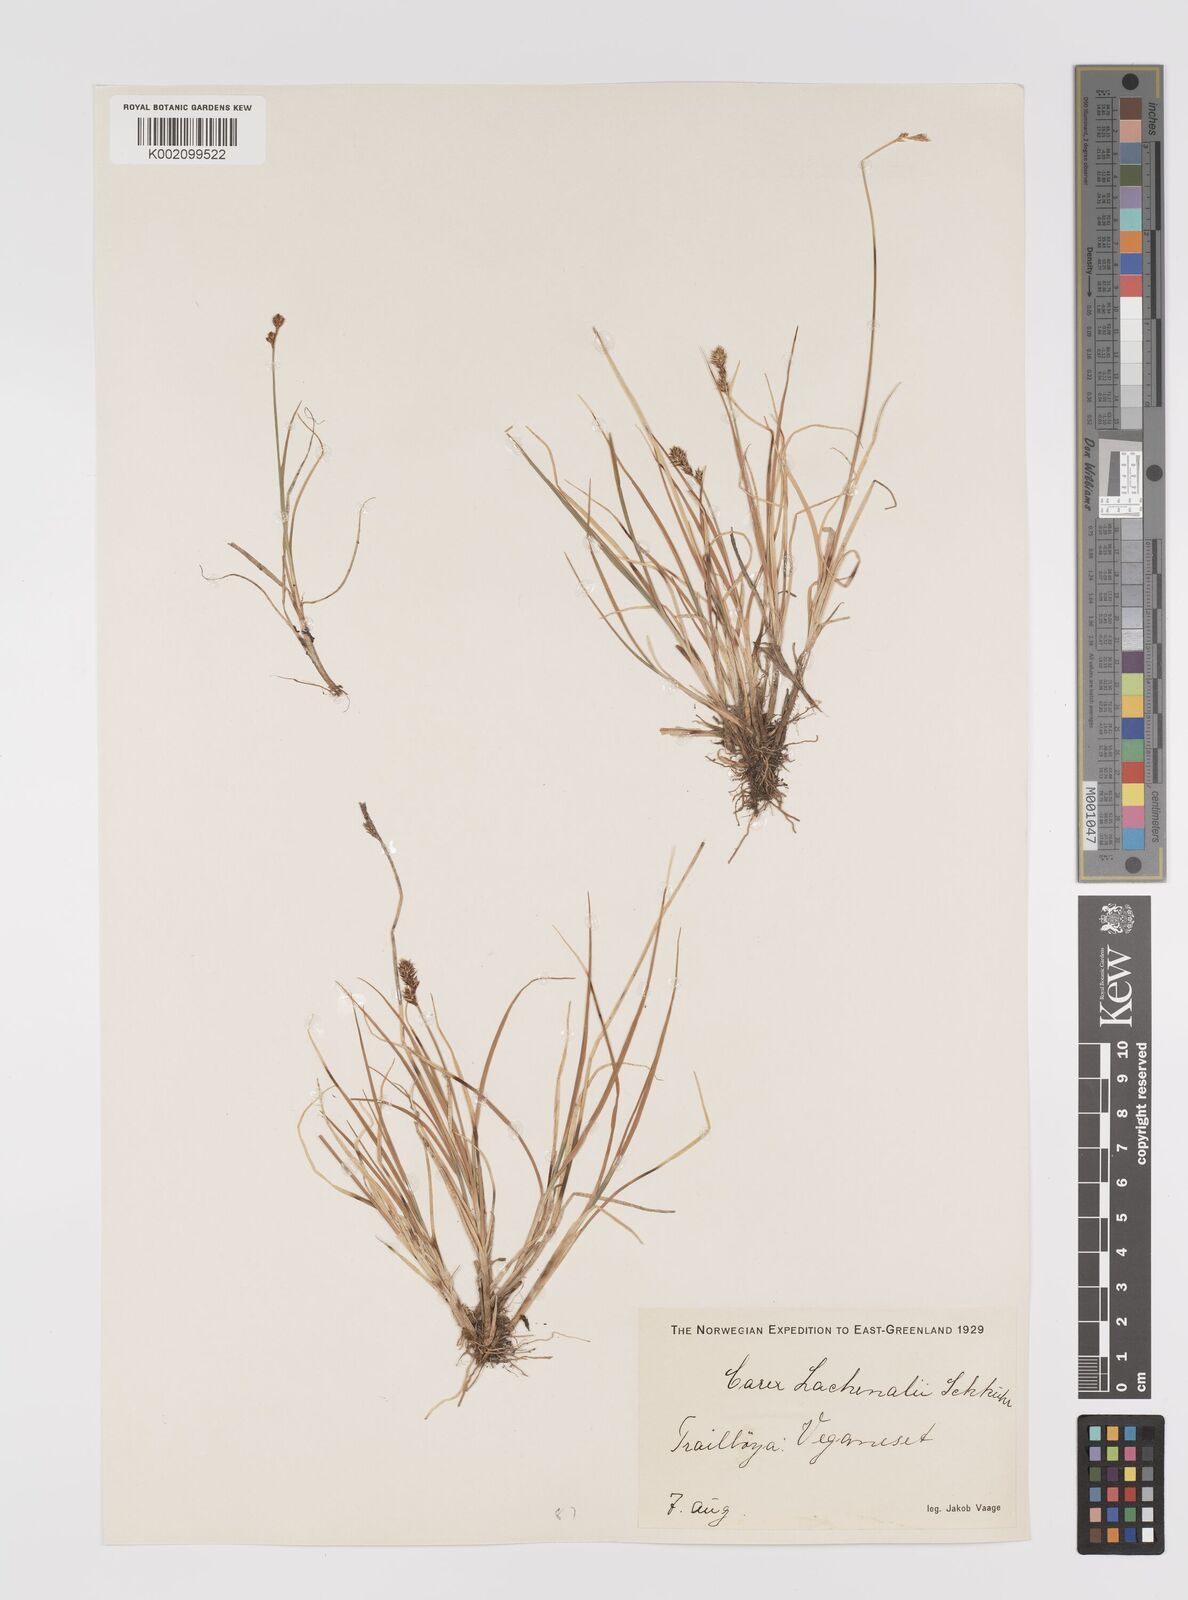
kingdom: Plantae
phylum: Tracheophyta
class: Liliopsida
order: Poales
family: Cyperaceae
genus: Carex
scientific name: Carex lachenalii
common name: Hare's-foot sedge
